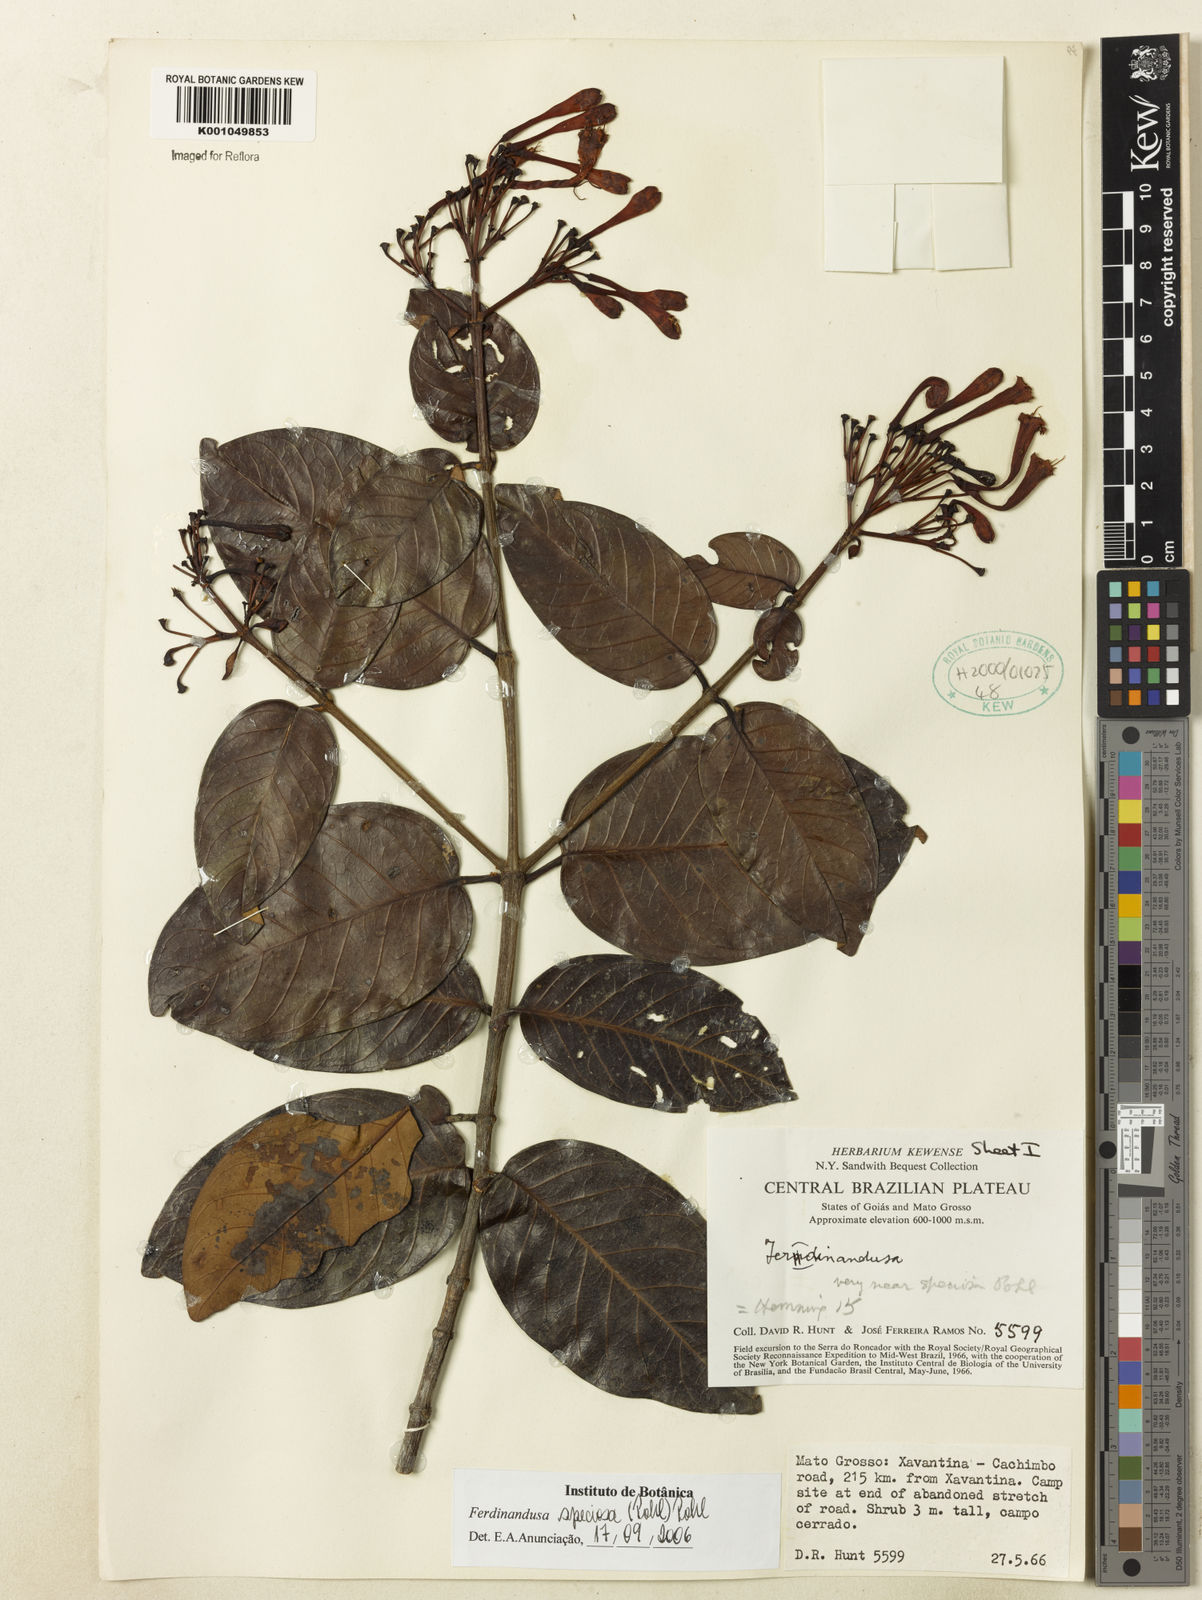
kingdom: Plantae
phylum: Tracheophyta
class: Magnoliopsida
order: Gentianales
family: Rubiaceae
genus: Ferdinandusa
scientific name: Ferdinandusa speciosa
